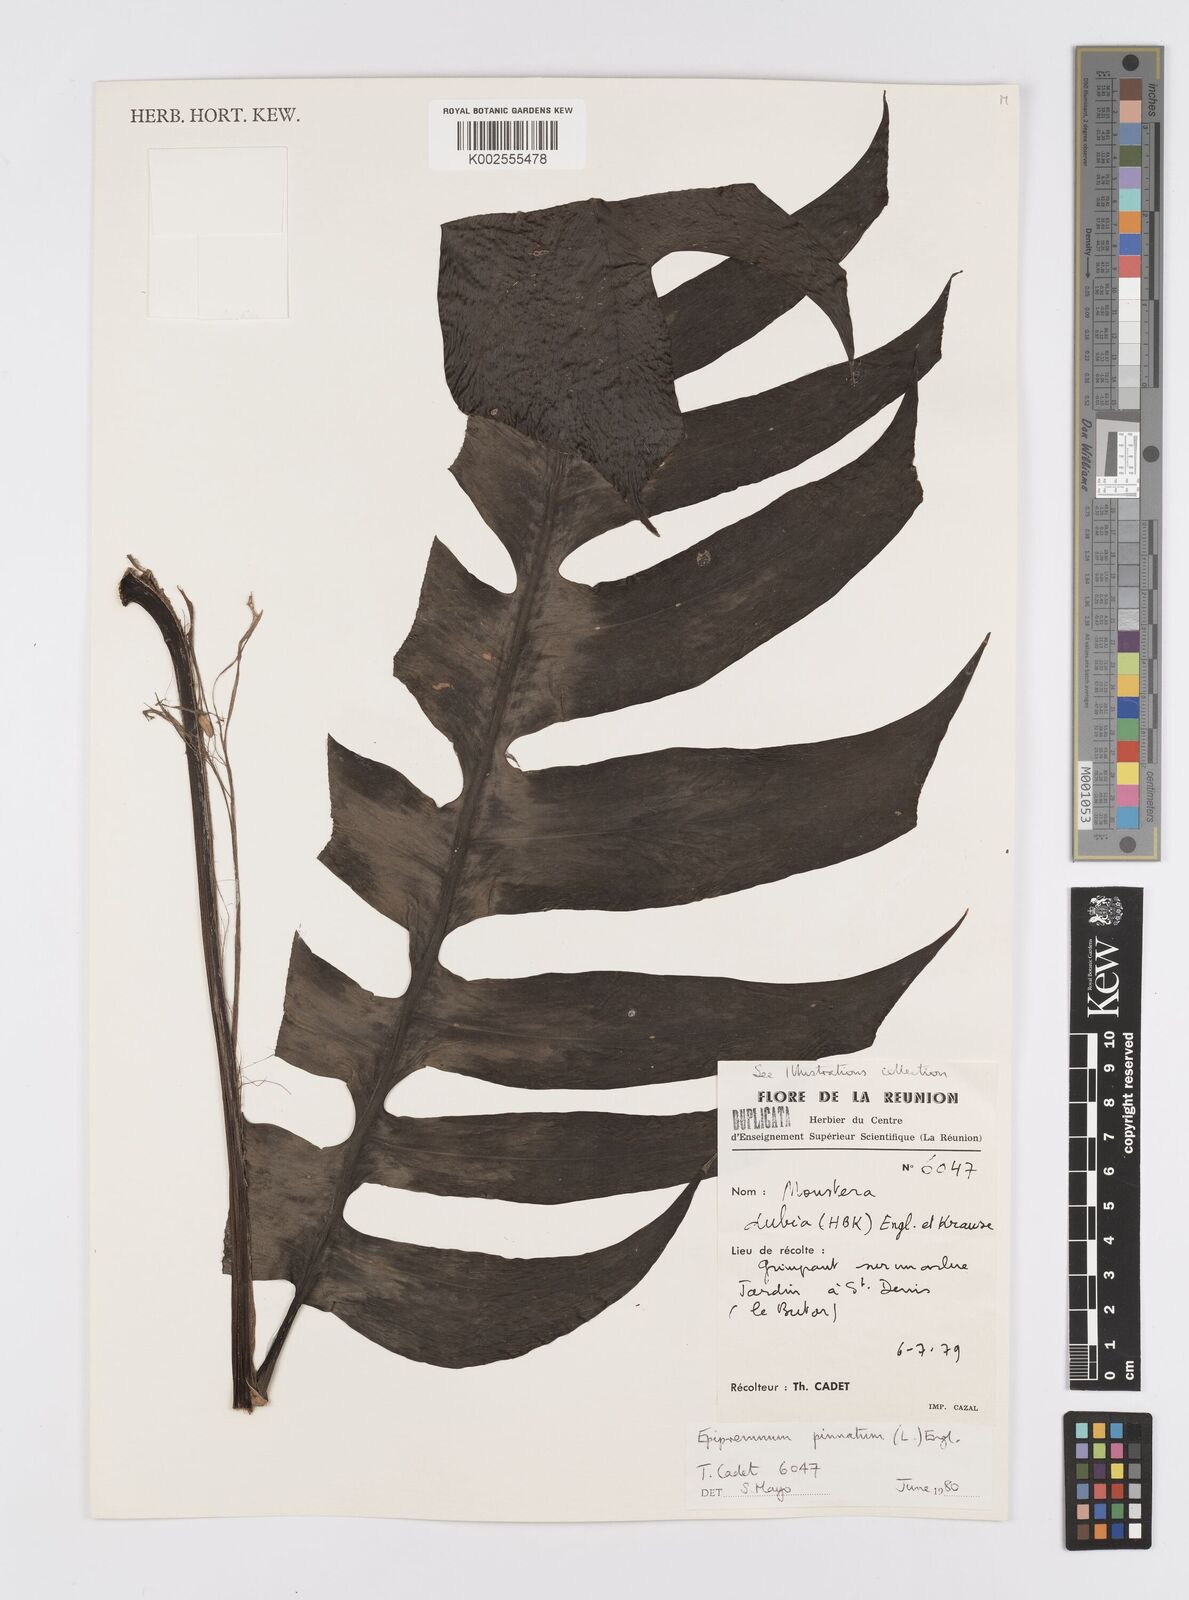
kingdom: Plantae
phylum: Tracheophyta
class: Liliopsida
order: Alismatales
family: Araceae
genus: Epipremnum
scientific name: Epipremnum pinnatum
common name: Centipede tongavine
